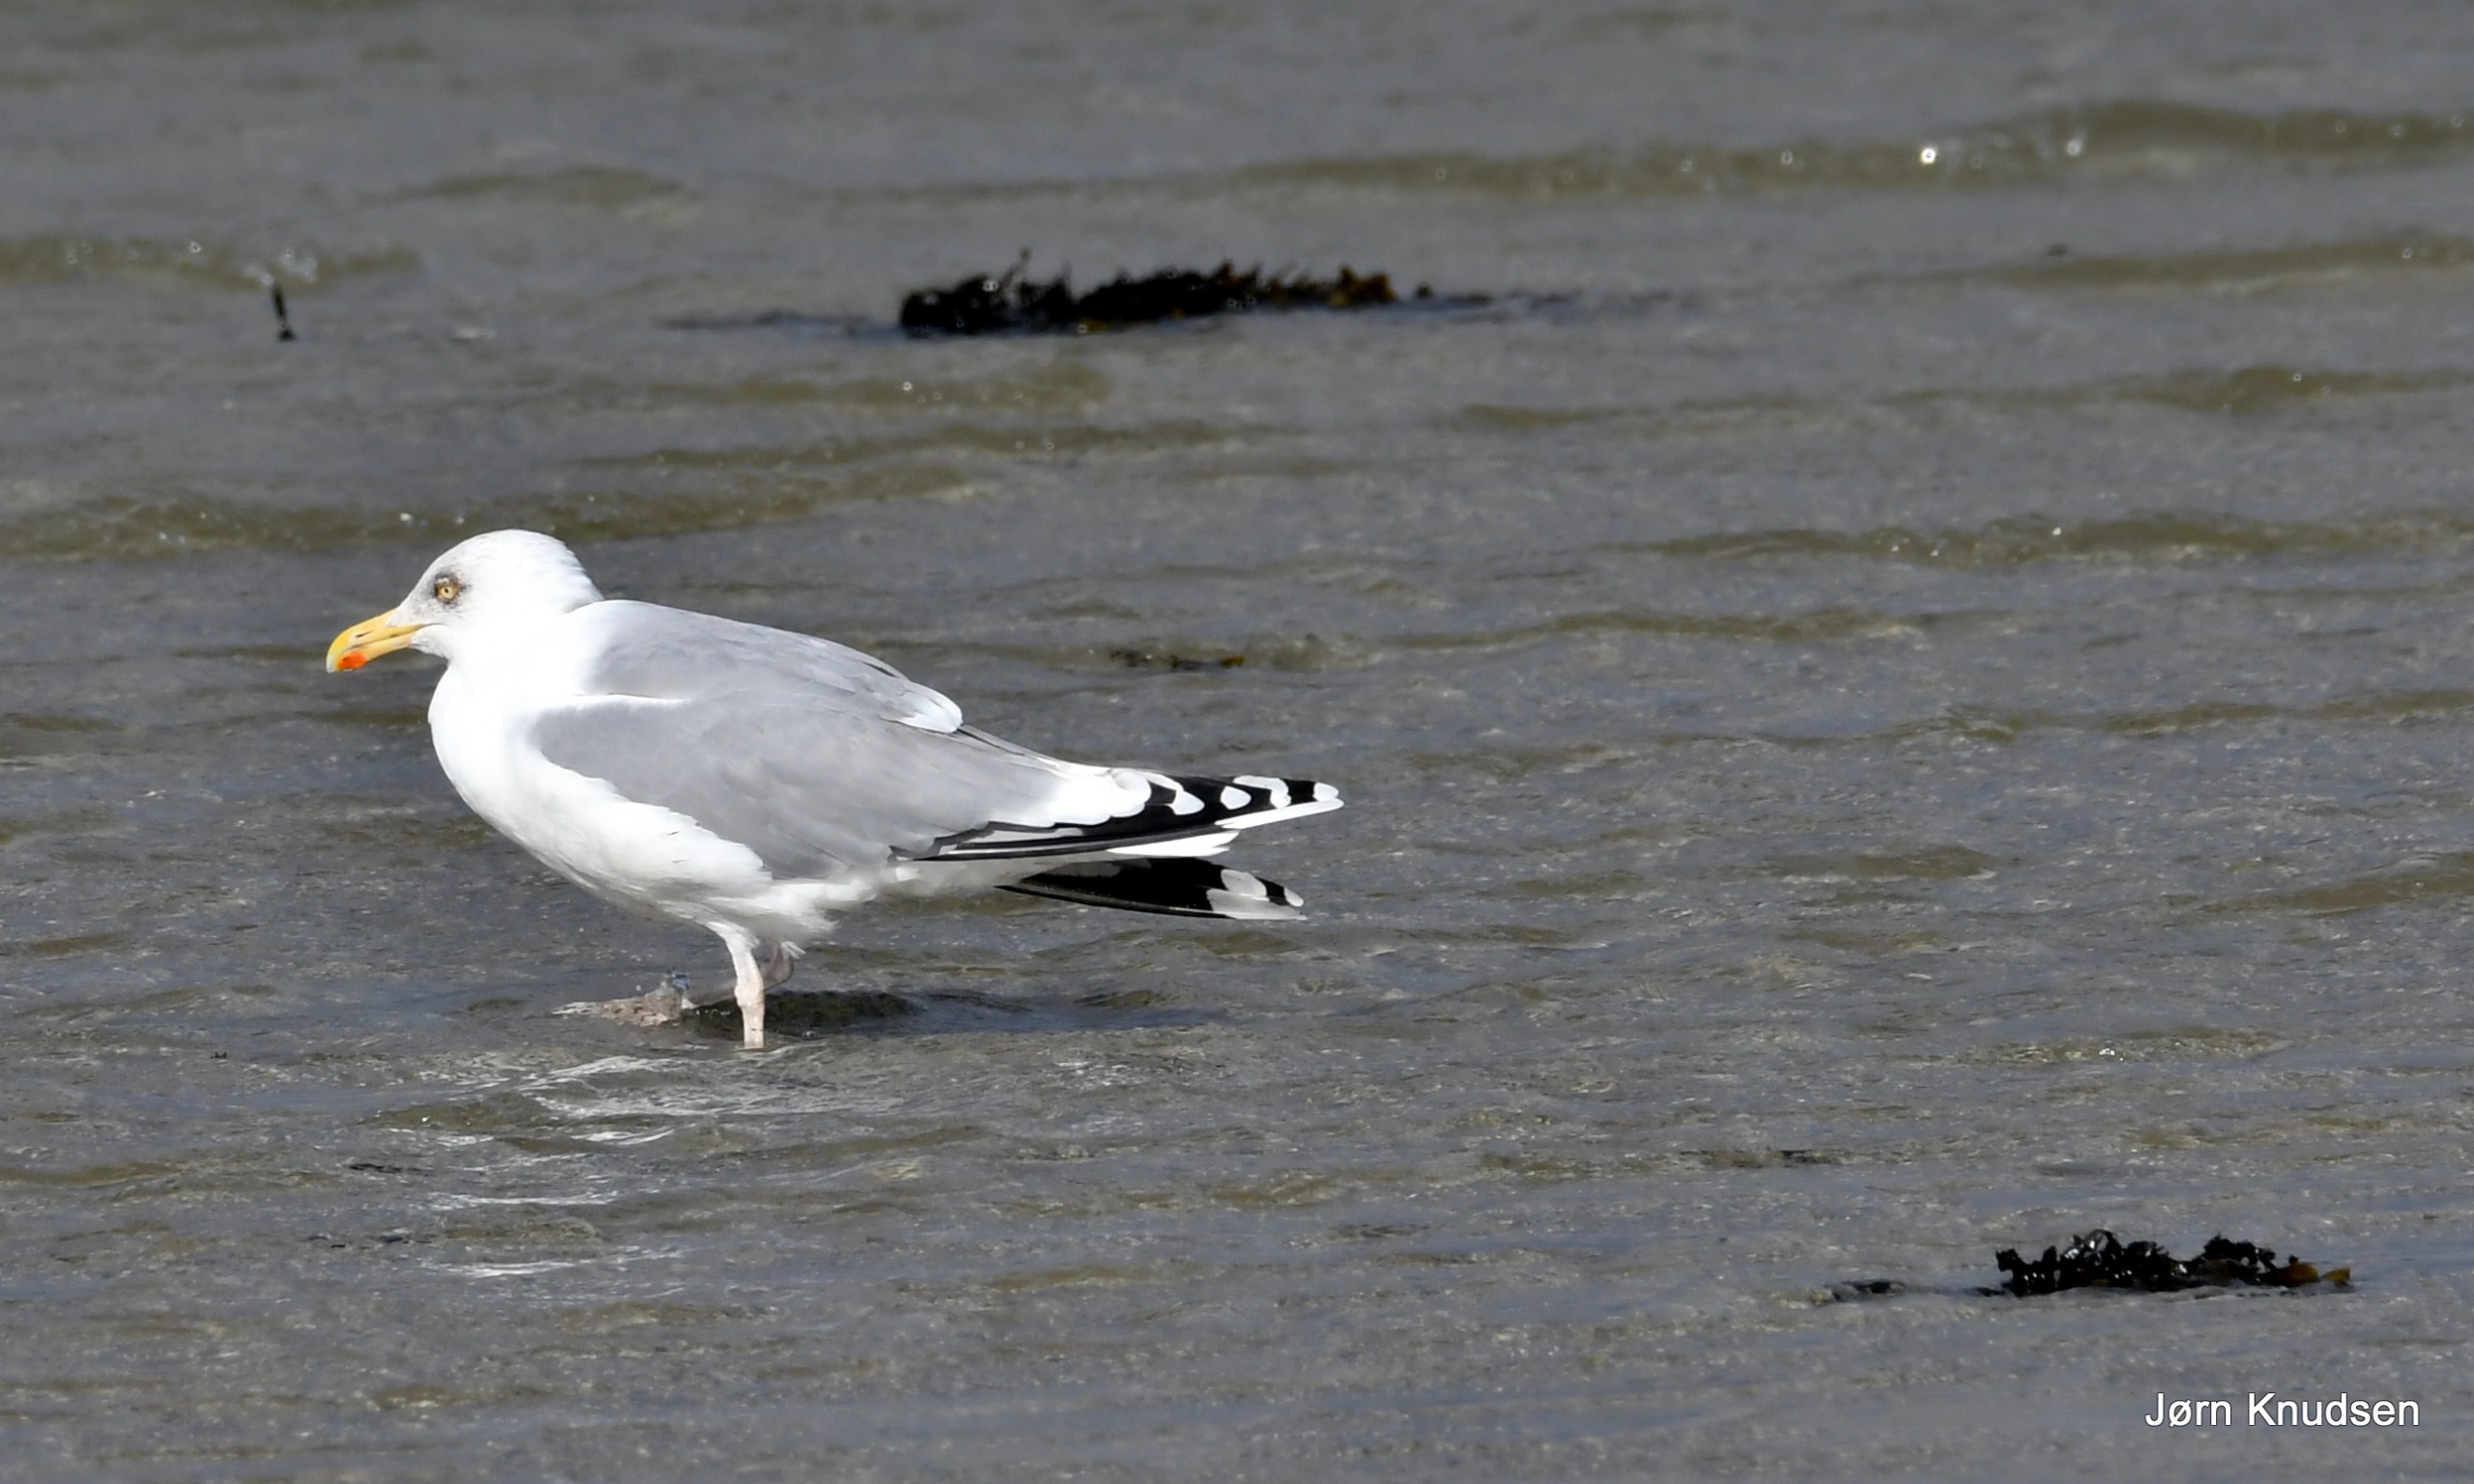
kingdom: Animalia
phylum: Chordata
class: Aves
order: Charadriiformes
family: Laridae
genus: Larus
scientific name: Larus argentatus
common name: Sølvmåge
